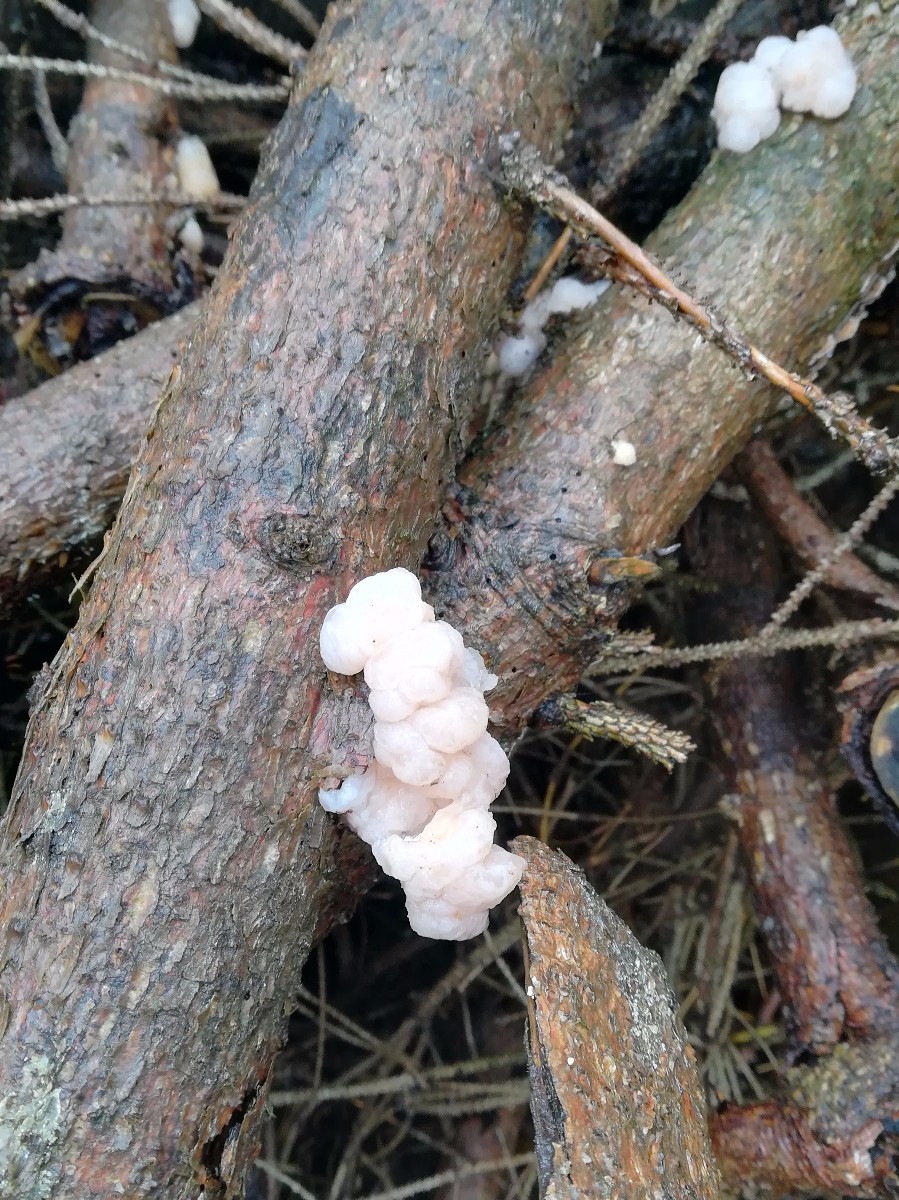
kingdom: Fungi
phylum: Basidiomycota
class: Tremellomycetes
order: Tremellales
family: Naemateliaceae
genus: Naematelia
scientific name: Naematelia encephala
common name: fyrre-bævresvamp
